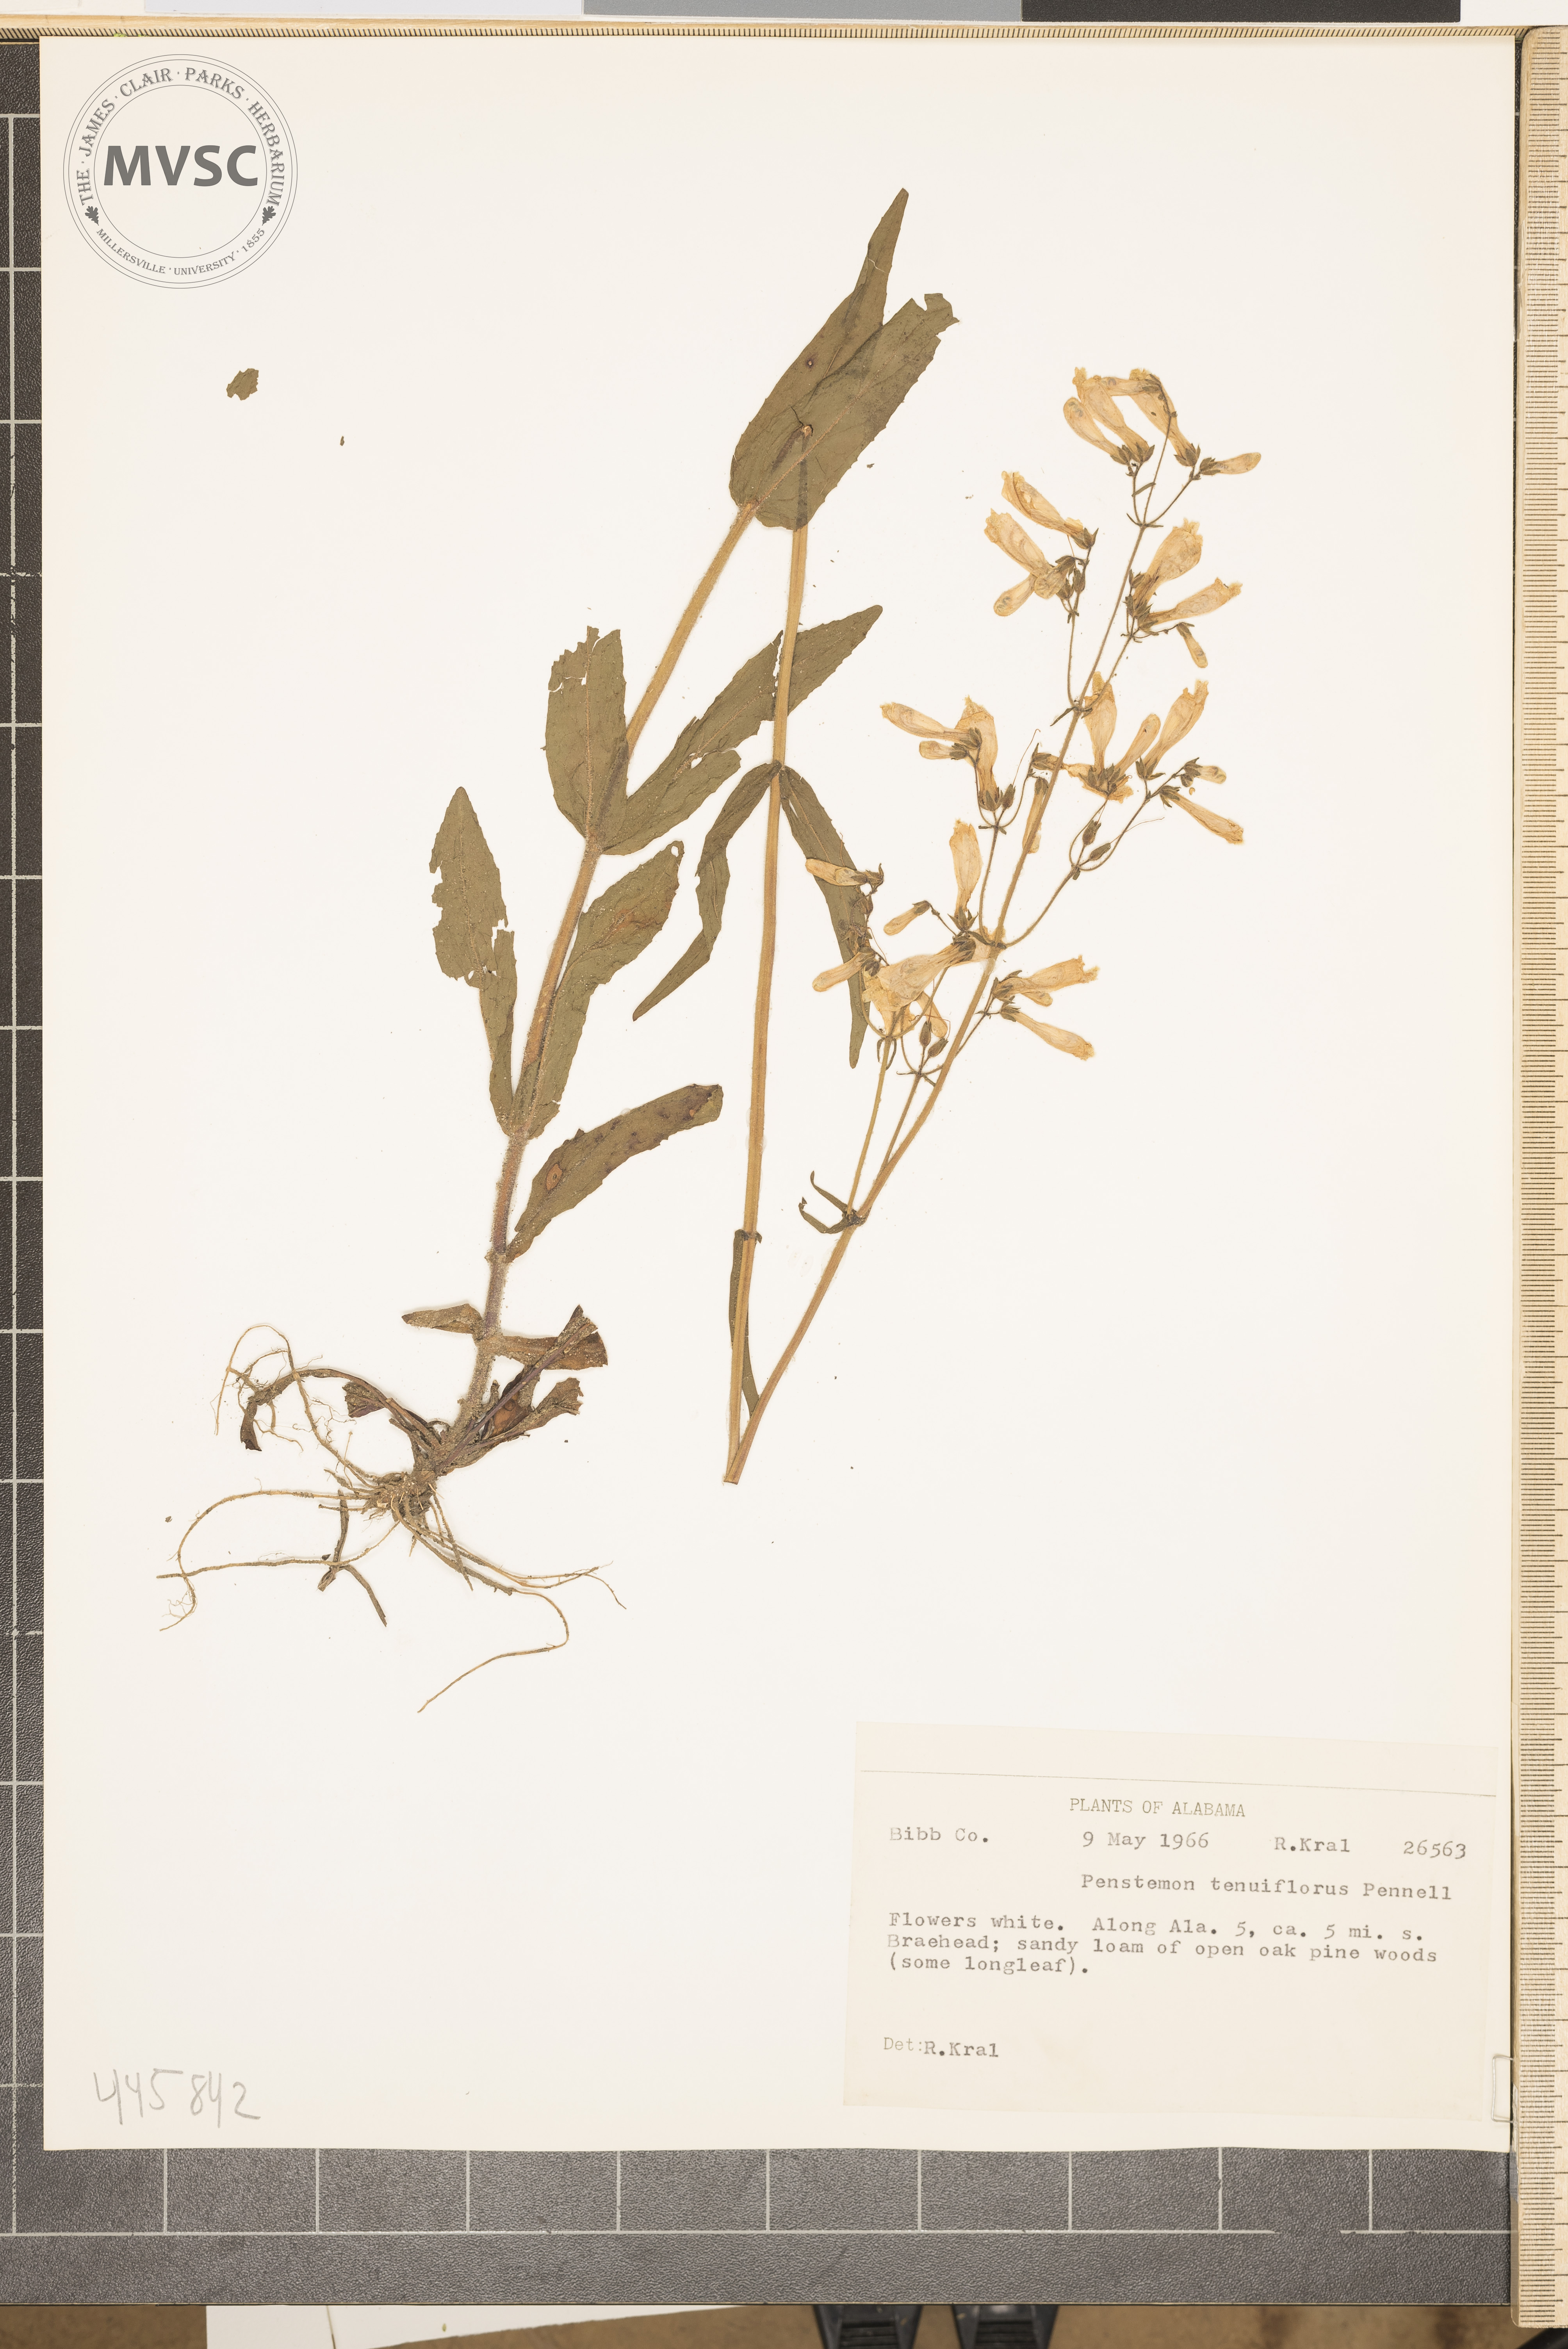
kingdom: Plantae
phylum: Tracheophyta
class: Magnoliopsida
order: Lamiales
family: Plantaginaceae
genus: Penstemon
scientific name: Penstemon tenuiflorus
